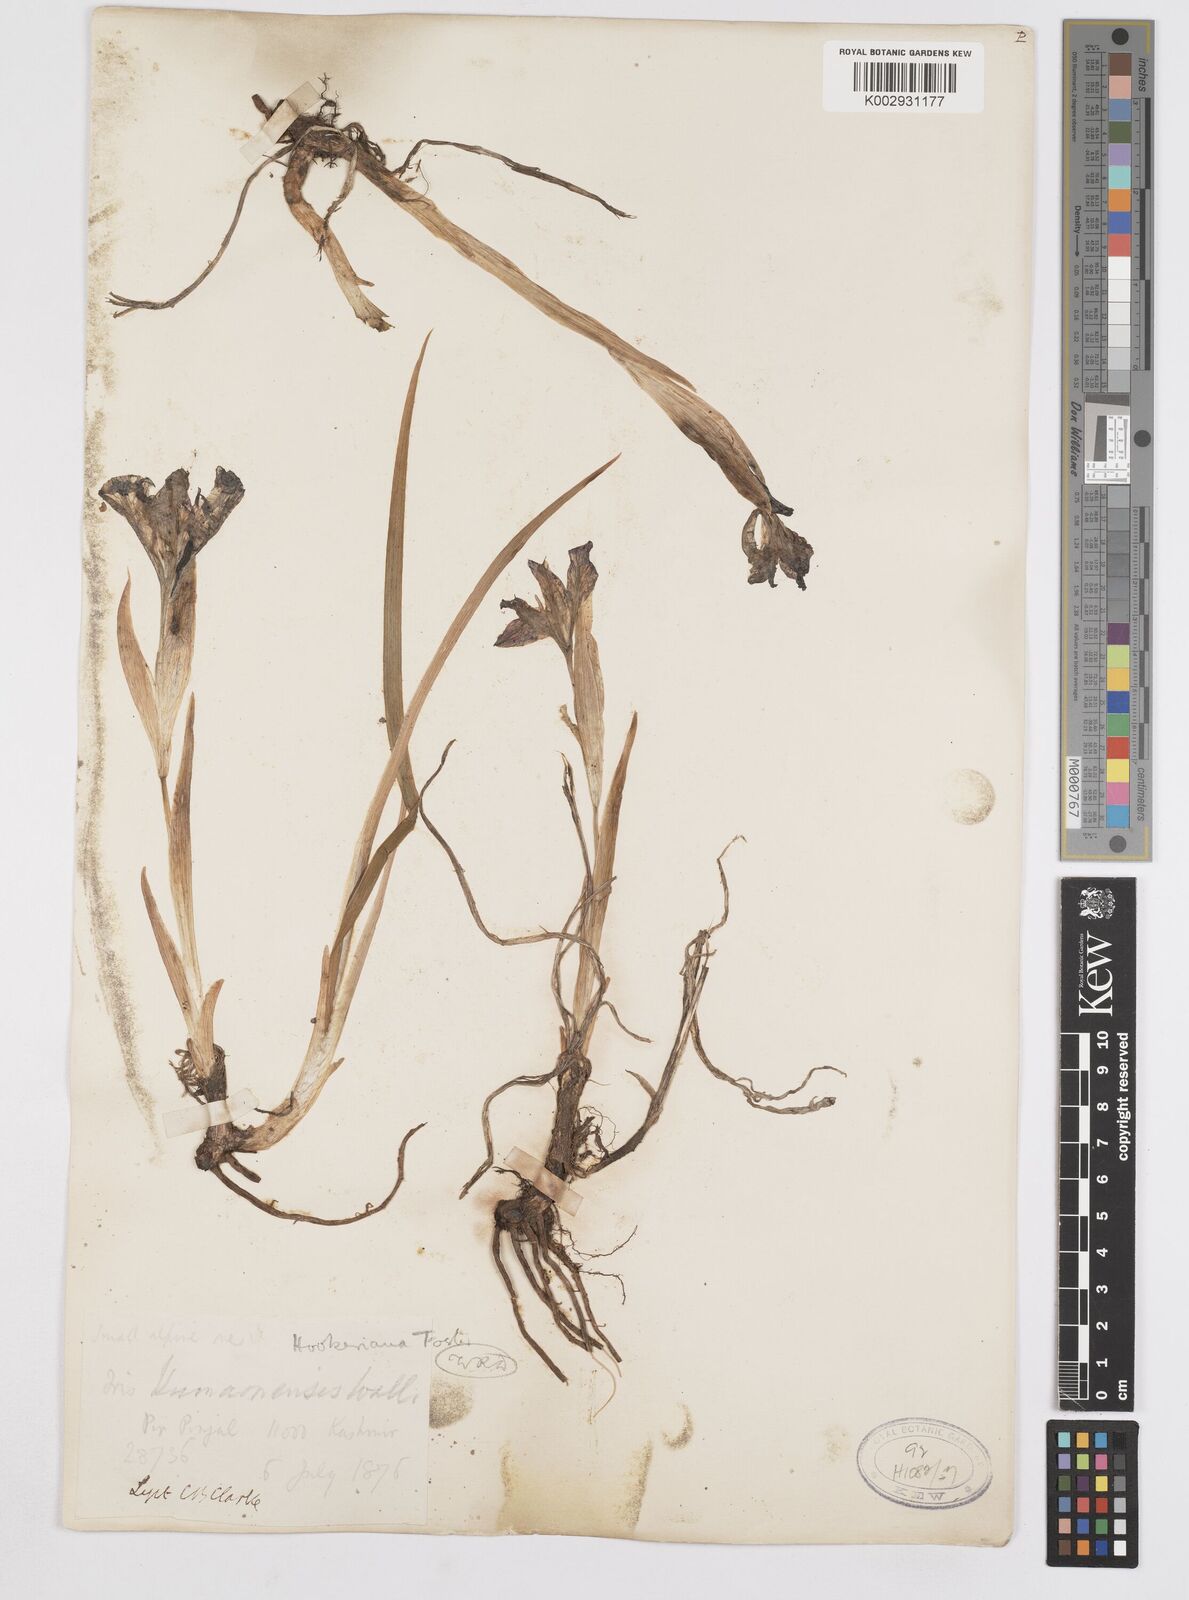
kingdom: Plantae
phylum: Tracheophyta
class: Liliopsida
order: Asparagales
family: Iridaceae
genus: Iris
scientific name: Iris kemaonensis
